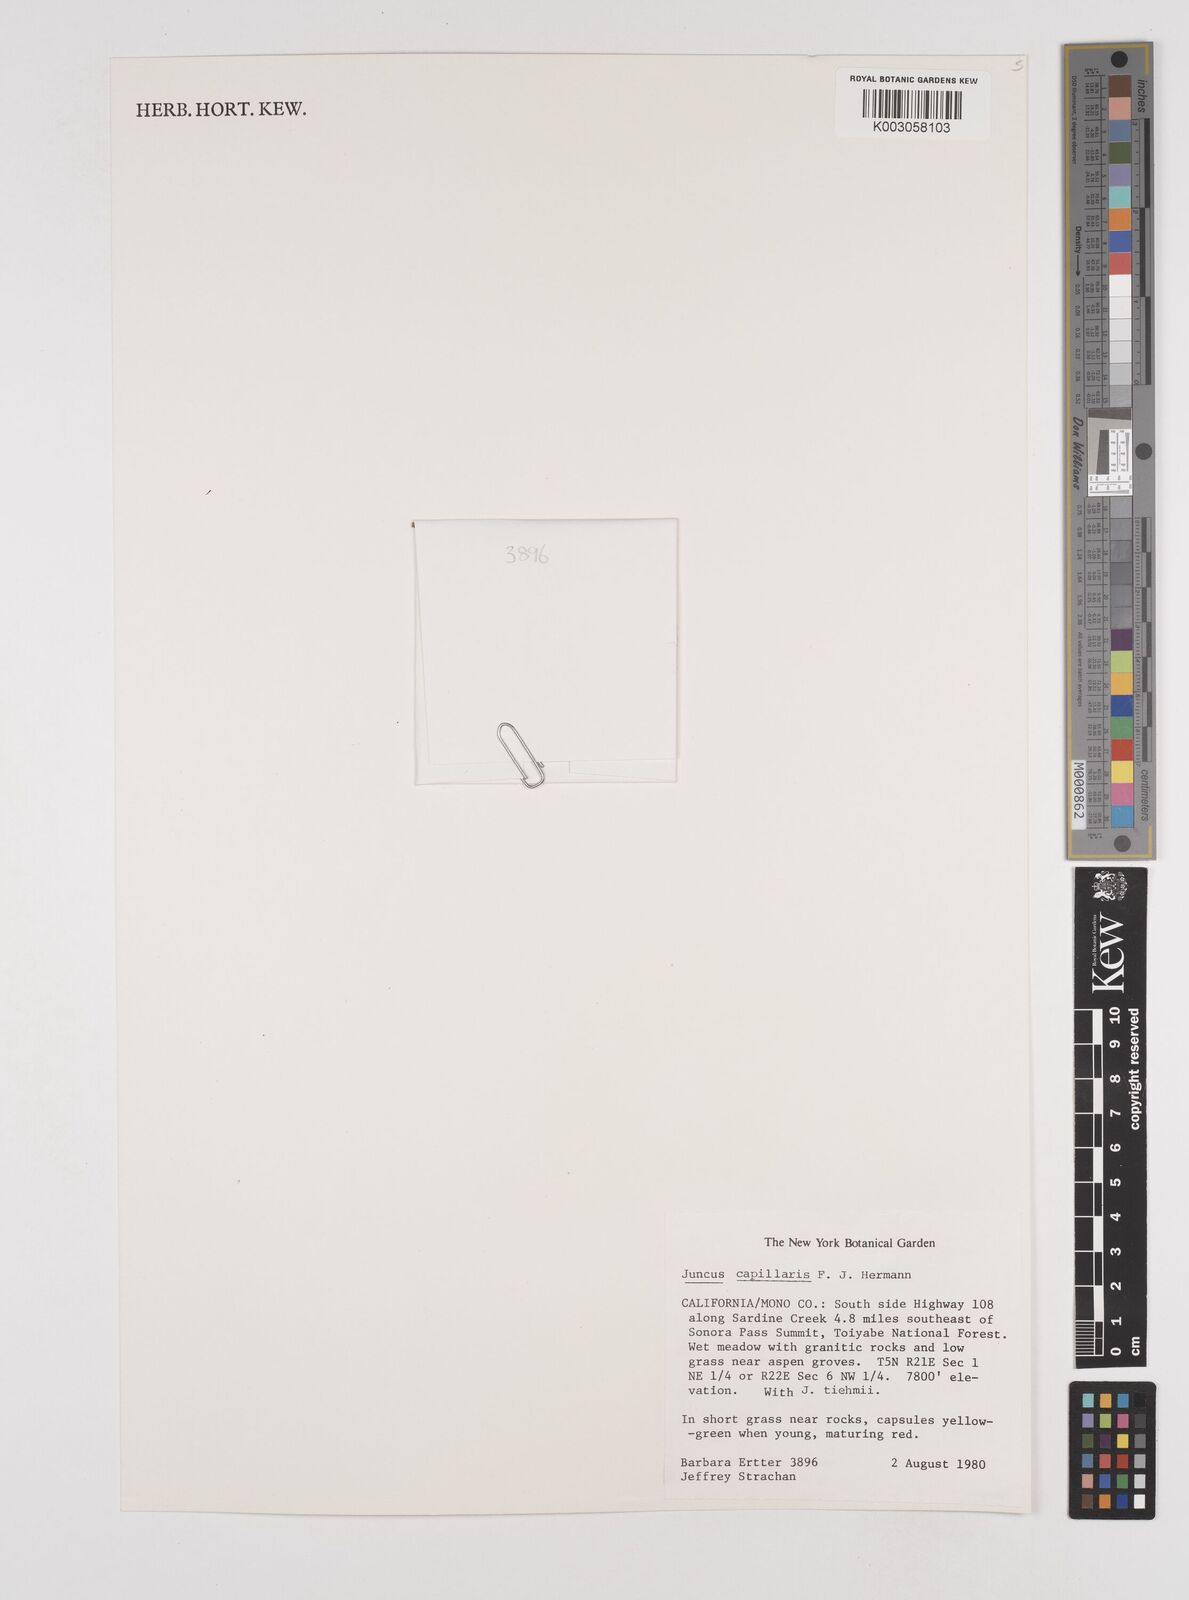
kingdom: Plantae
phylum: Tracheophyta
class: Liliopsida
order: Poales
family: Juncaceae
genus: Juncus
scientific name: Juncus capillaris
